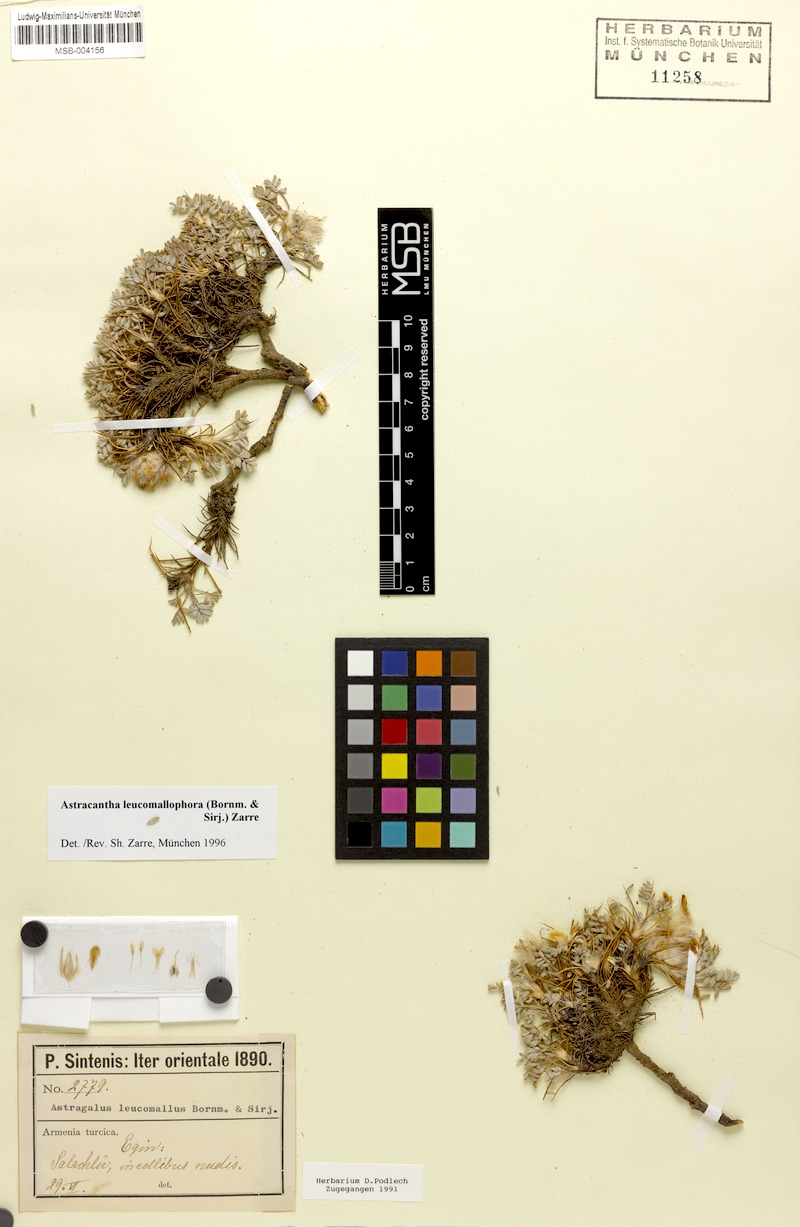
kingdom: Plantae
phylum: Tracheophyta
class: Magnoliopsida
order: Fabales
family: Fabaceae
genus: Astragalus
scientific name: Astragalus leucomallophorus
